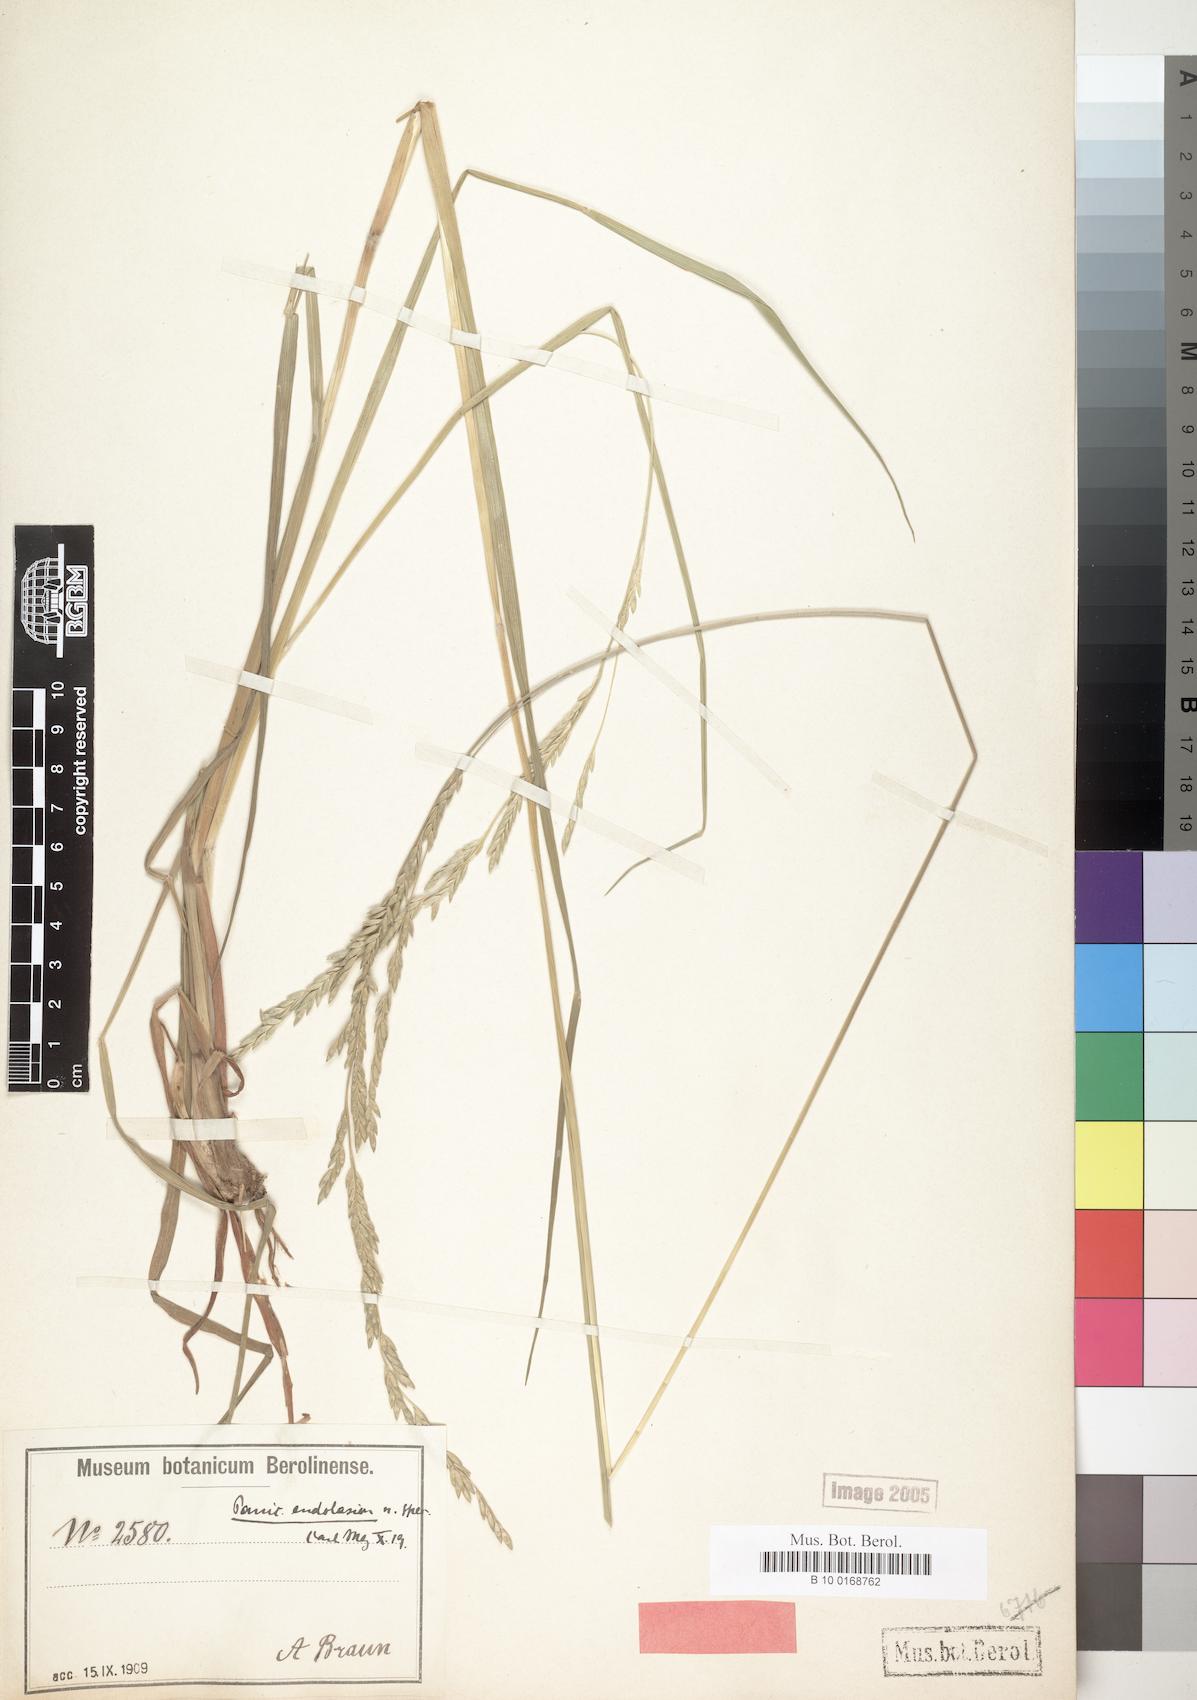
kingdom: Plantae
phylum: Tracheophyta
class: Liliopsida
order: Poales
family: Poaceae
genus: Entolasia
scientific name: Entolasia imbricata
